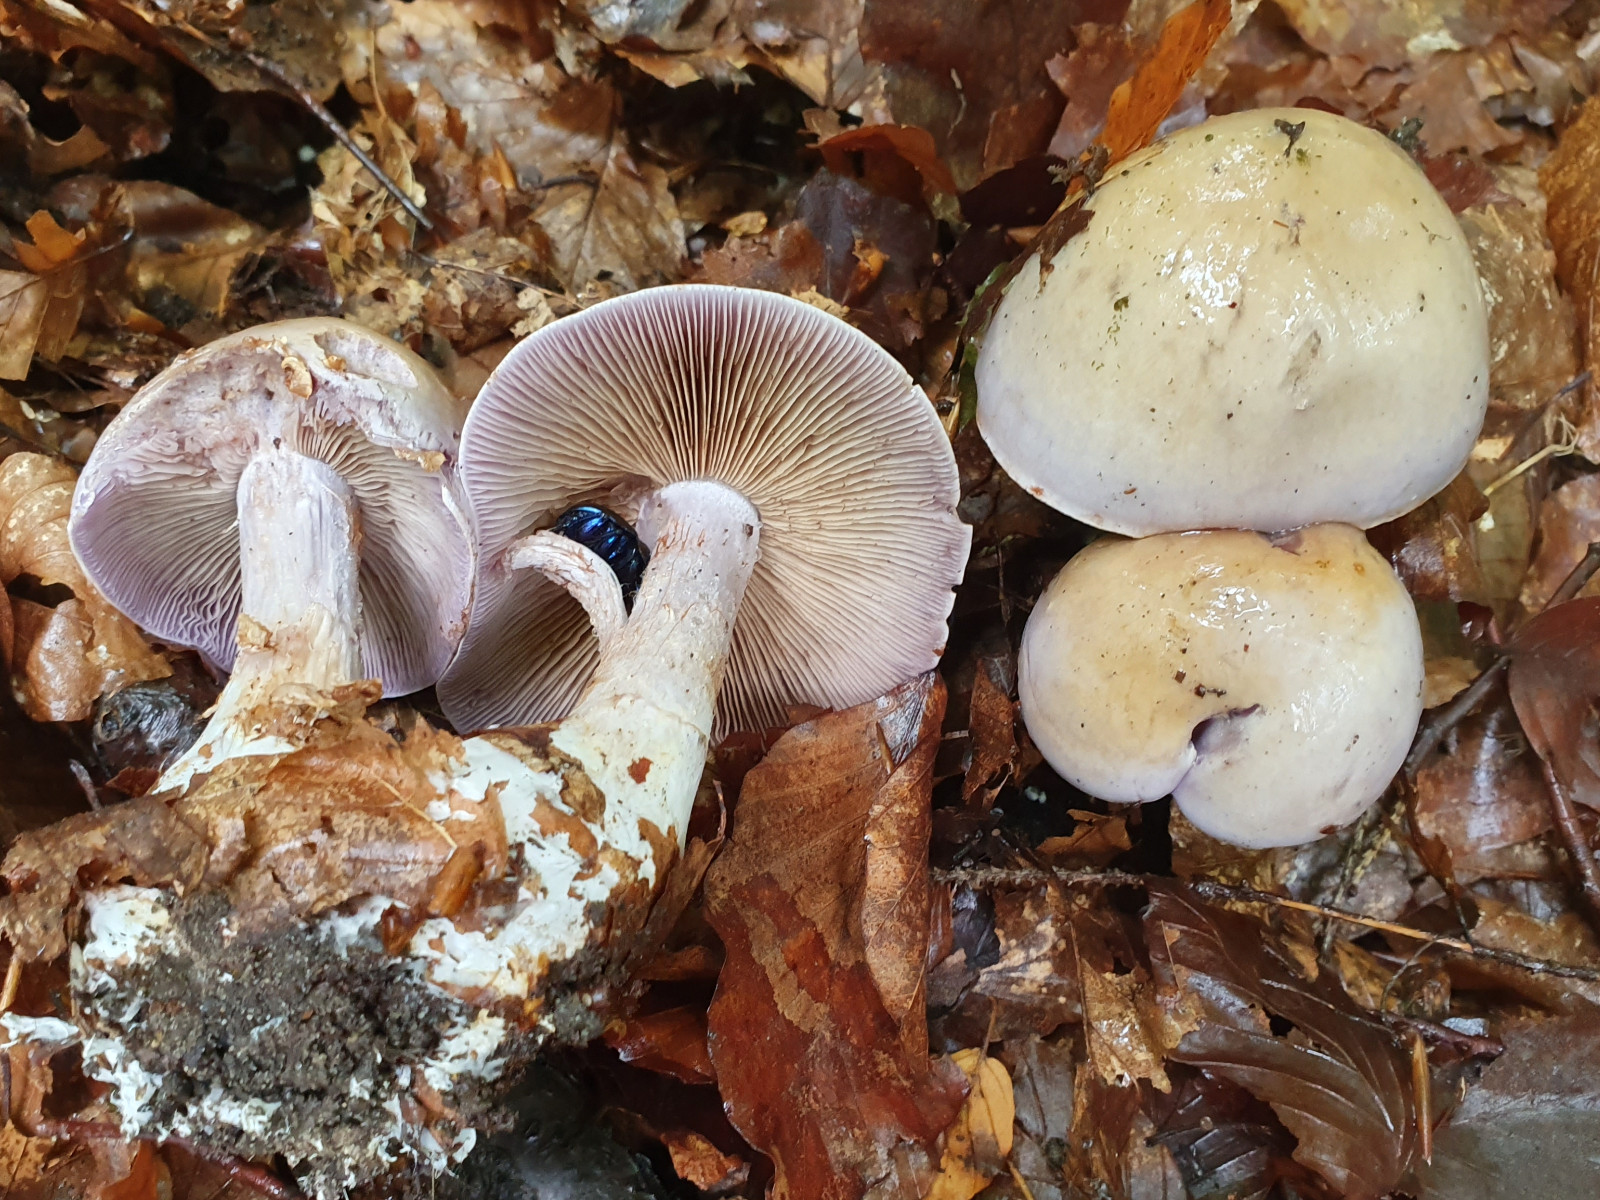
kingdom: Fungi
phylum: Basidiomycota
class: Agaricomycetes
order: Agaricales
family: Cortinariaceae
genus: Cortinarius
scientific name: Cortinarius largus
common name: violetrandet slørhat
